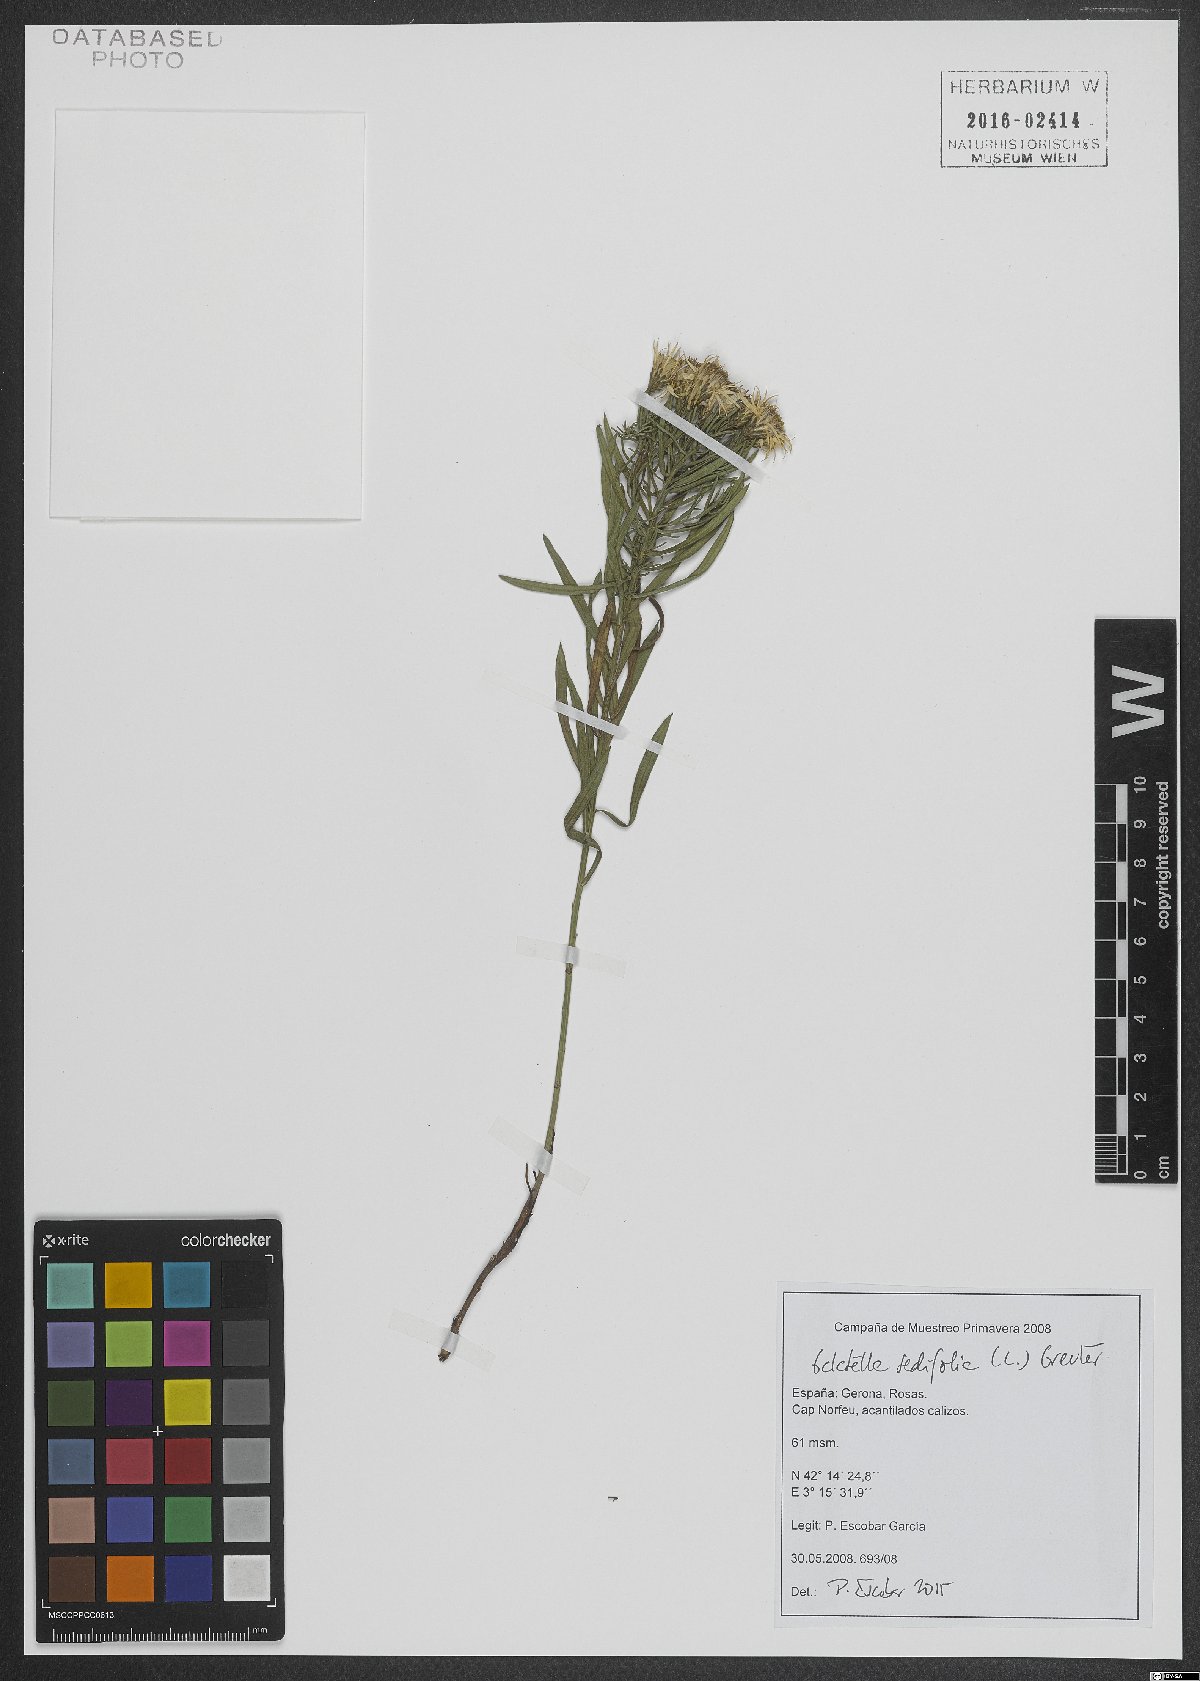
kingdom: Plantae
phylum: Tracheophyta
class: Magnoliopsida
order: Asterales
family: Asteraceae
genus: Galatella
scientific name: Galatella sedifolia
